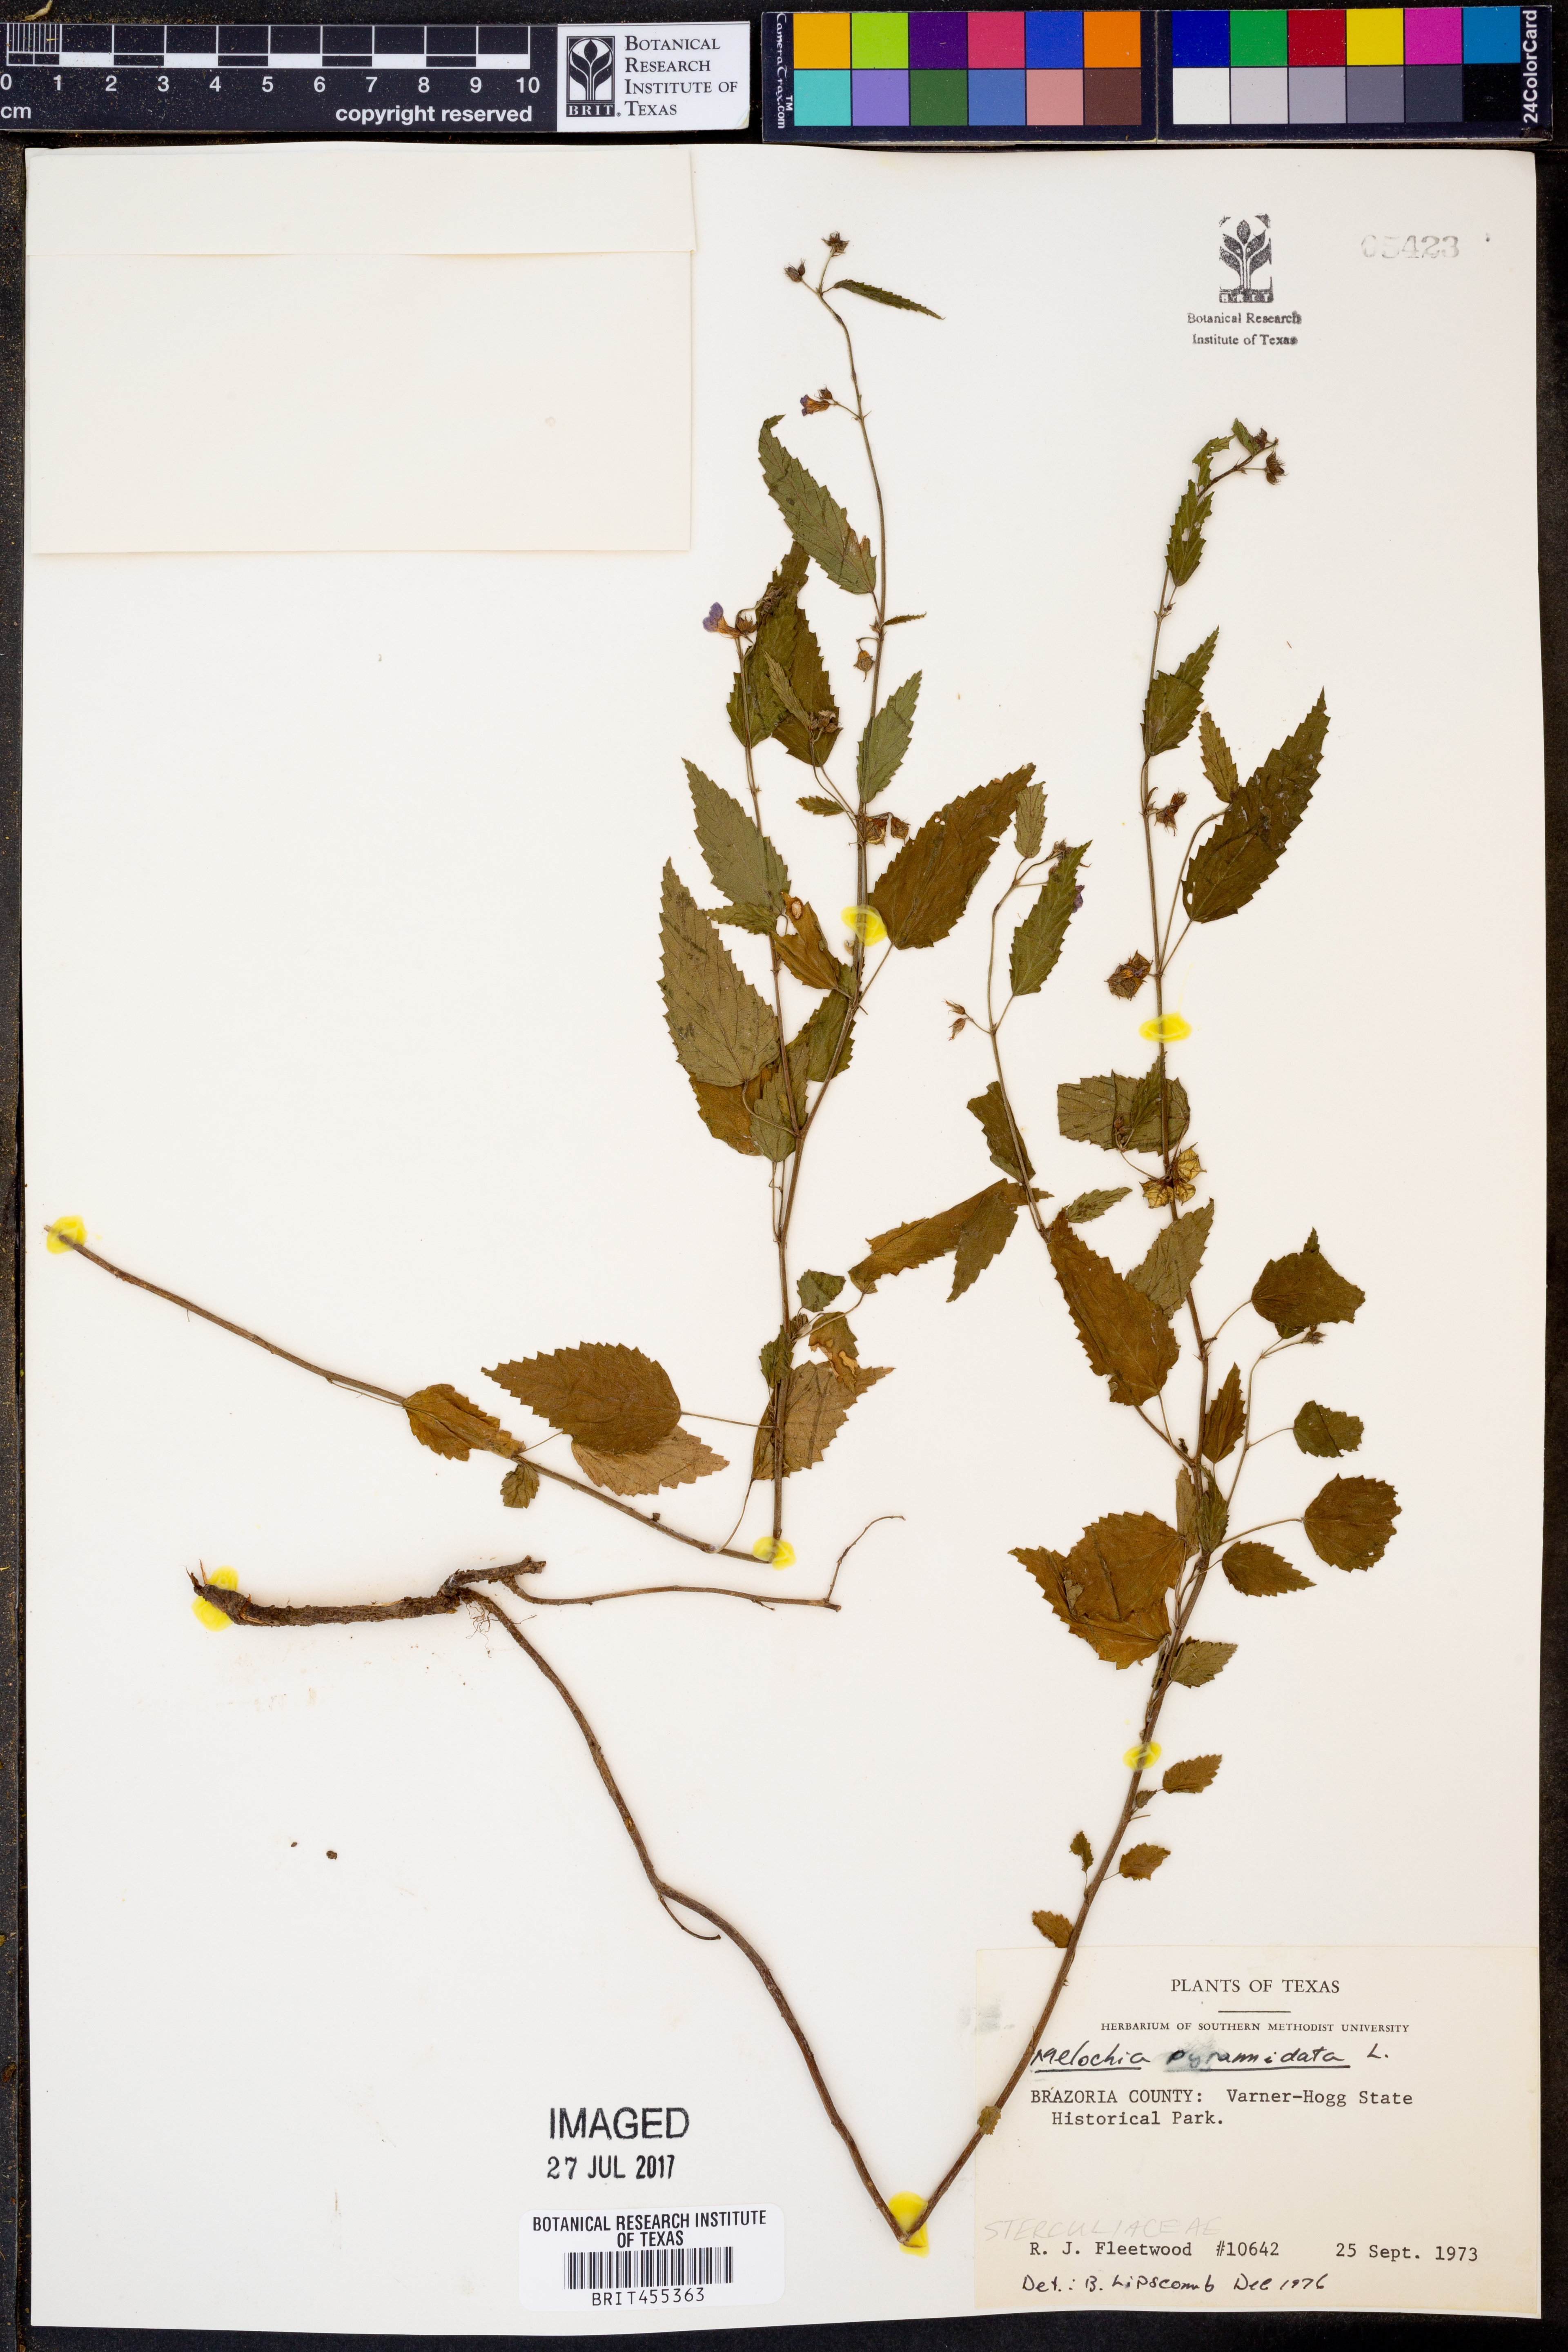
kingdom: Plantae
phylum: Tracheophyta
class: Magnoliopsida
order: Malvales
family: Malvaceae
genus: Melochia
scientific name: Melochia pyramidata
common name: Pyramidflower
